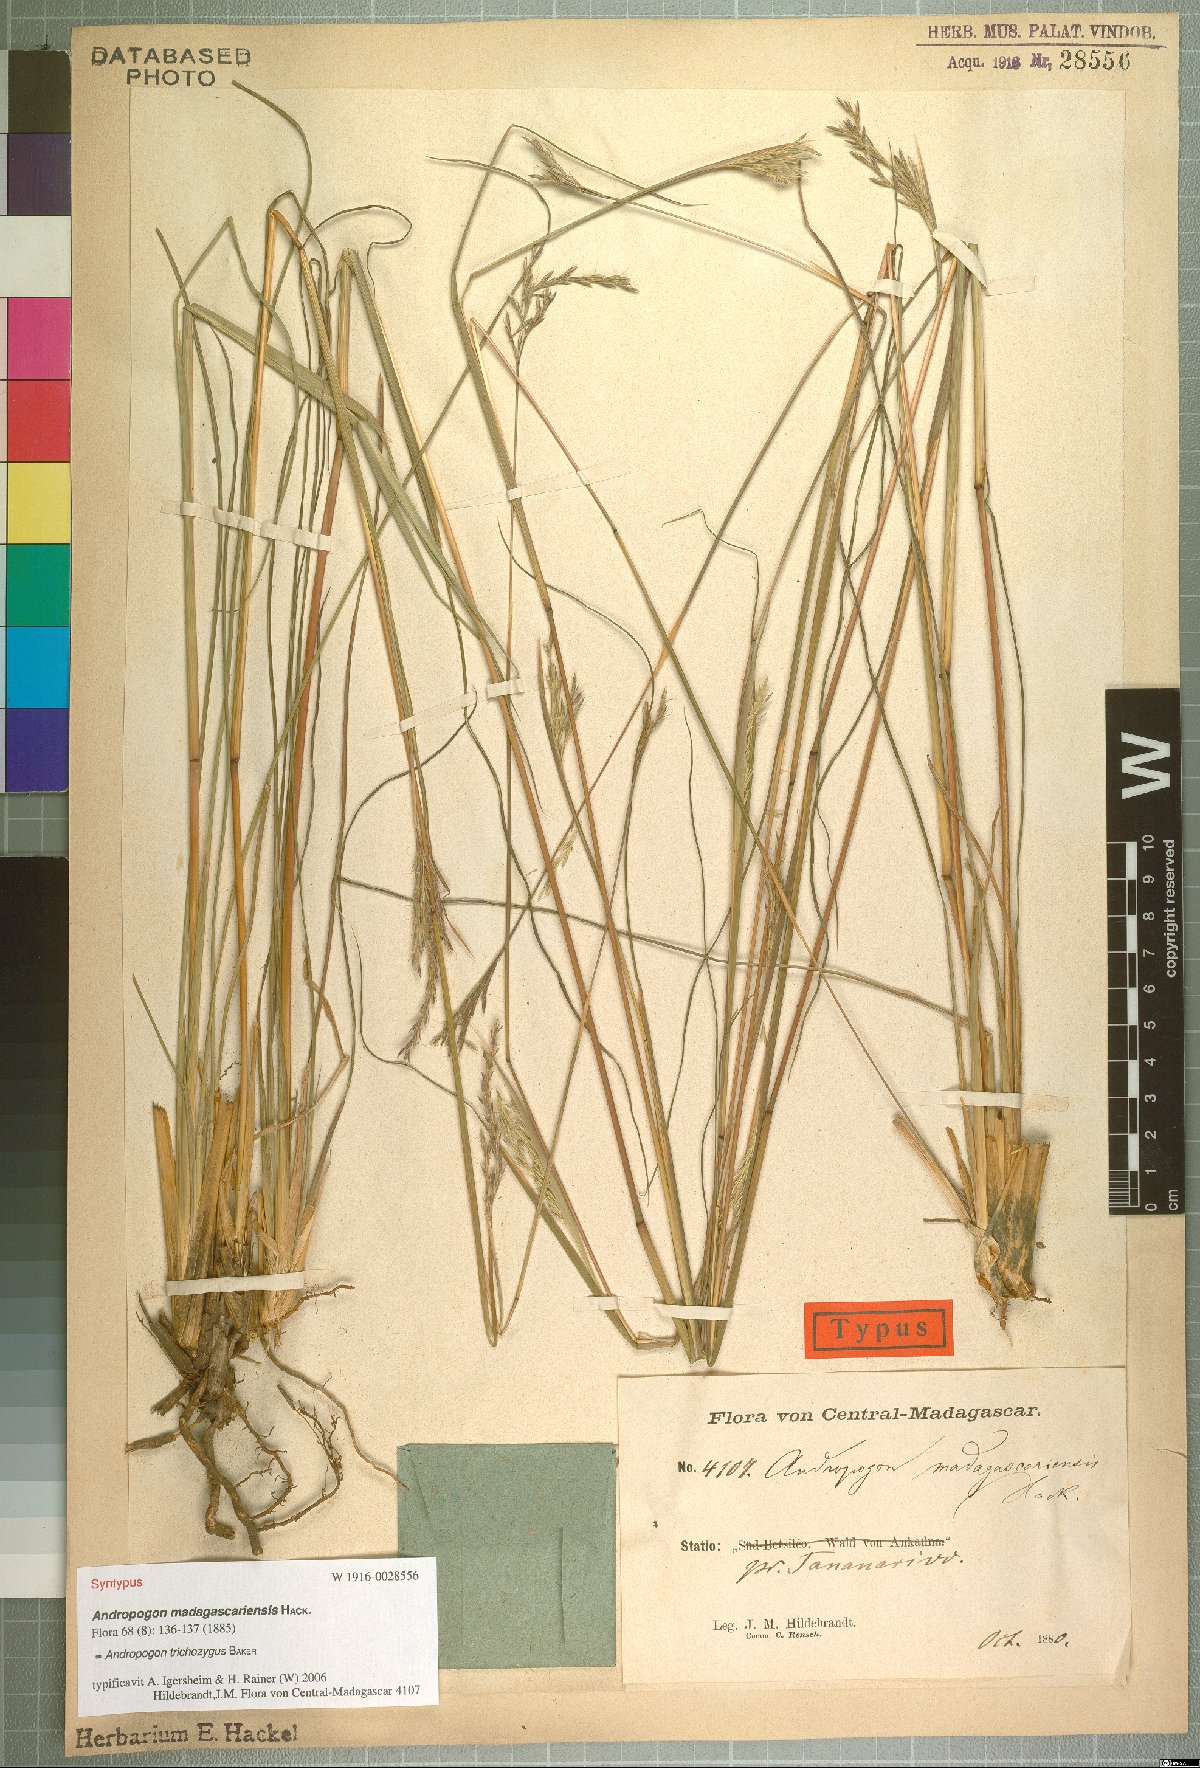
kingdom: Plantae
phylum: Tracheophyta
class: Liliopsida
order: Poales
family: Poaceae
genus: Andropogon
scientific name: Andropogon trichozygus
